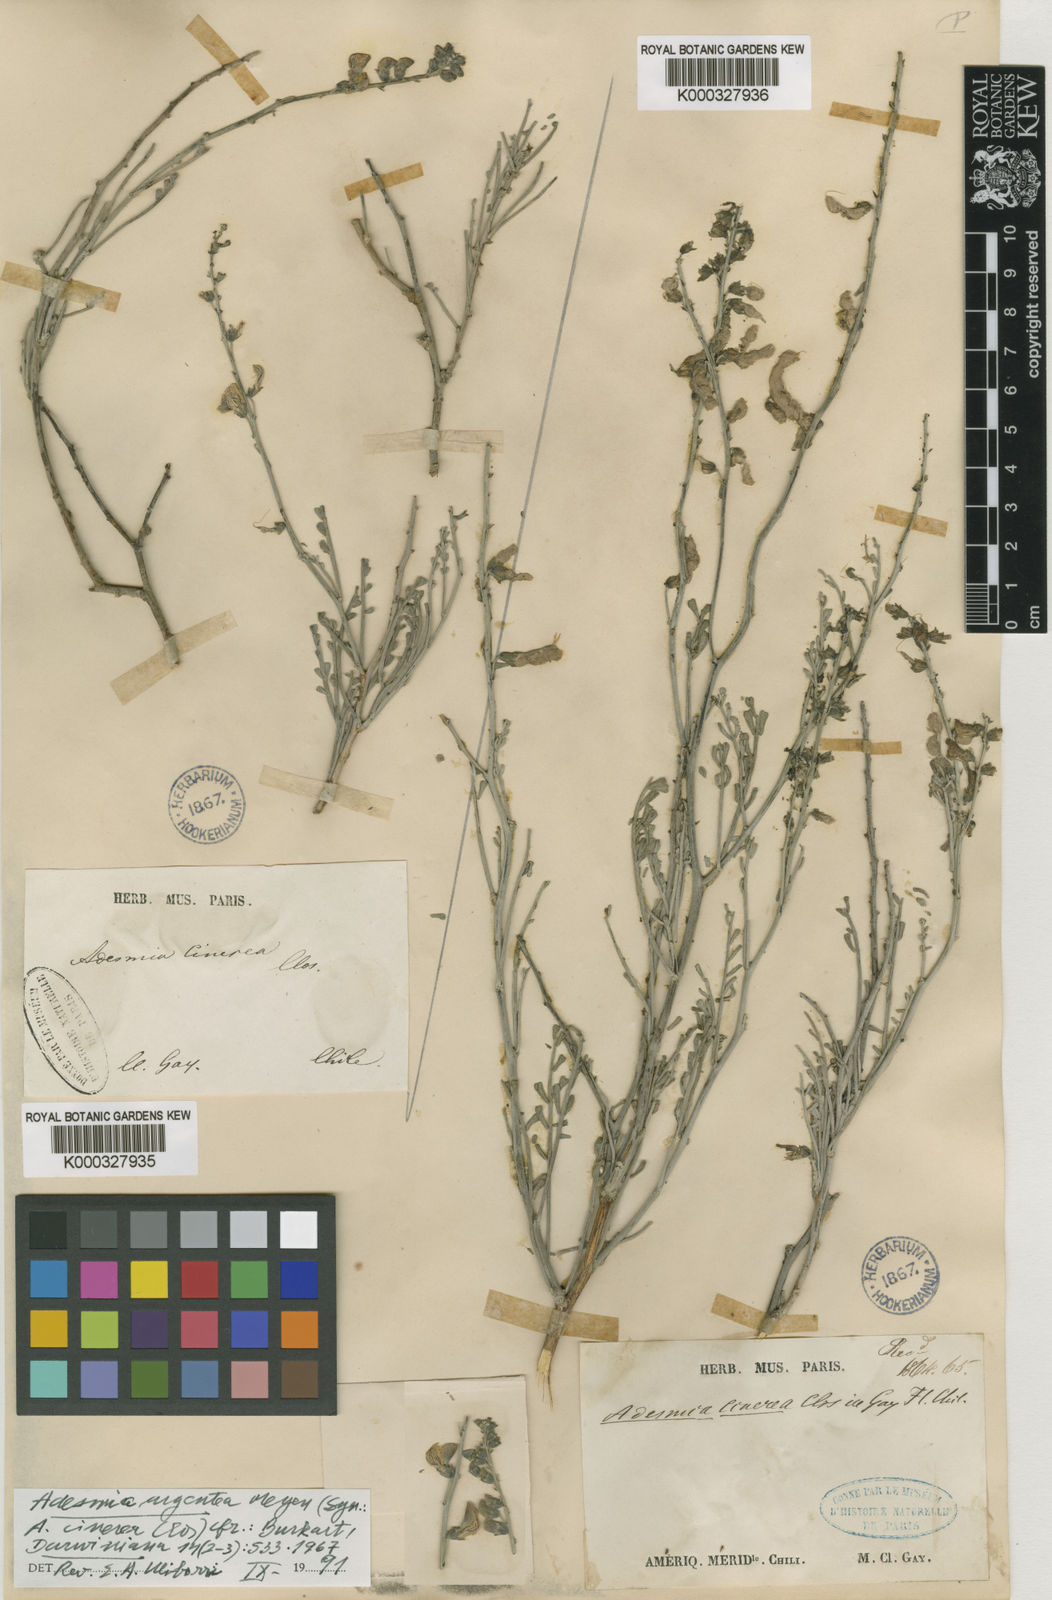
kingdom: Plantae
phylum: Tracheophyta
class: Magnoliopsida
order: Fabales
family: Fabaceae
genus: Adesmia
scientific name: Adesmia argentea
